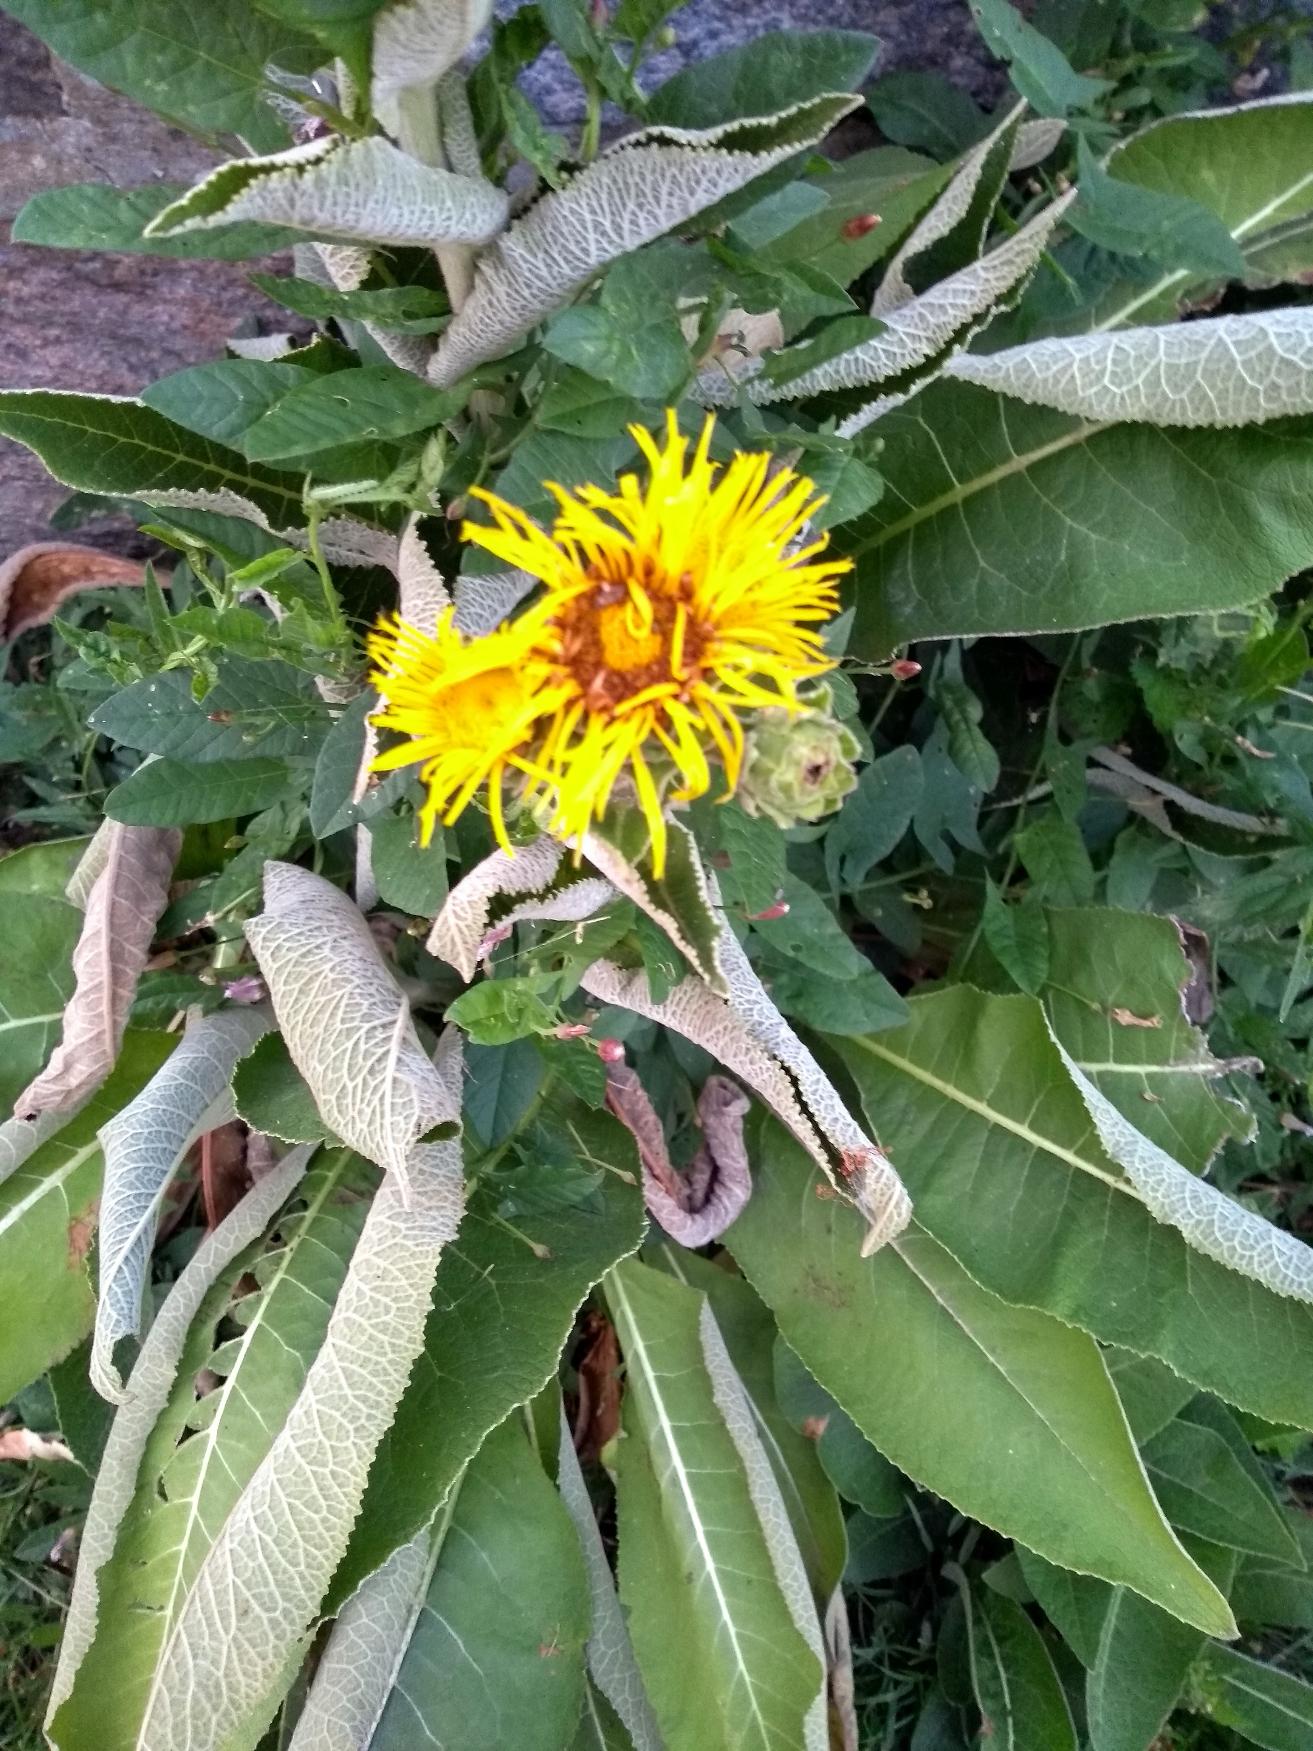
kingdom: Plantae
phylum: Tracheophyta
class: Magnoliopsida
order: Asterales
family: Asteraceae
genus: Inula
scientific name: Inula helenium
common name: Læge-alant
